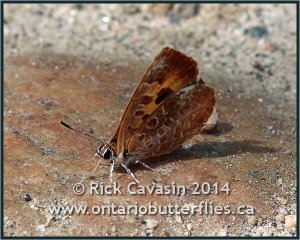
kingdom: Animalia
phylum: Arthropoda
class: Insecta
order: Lepidoptera
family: Lycaenidae
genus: Feniseca
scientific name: Feniseca tarquinius
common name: Harvester
